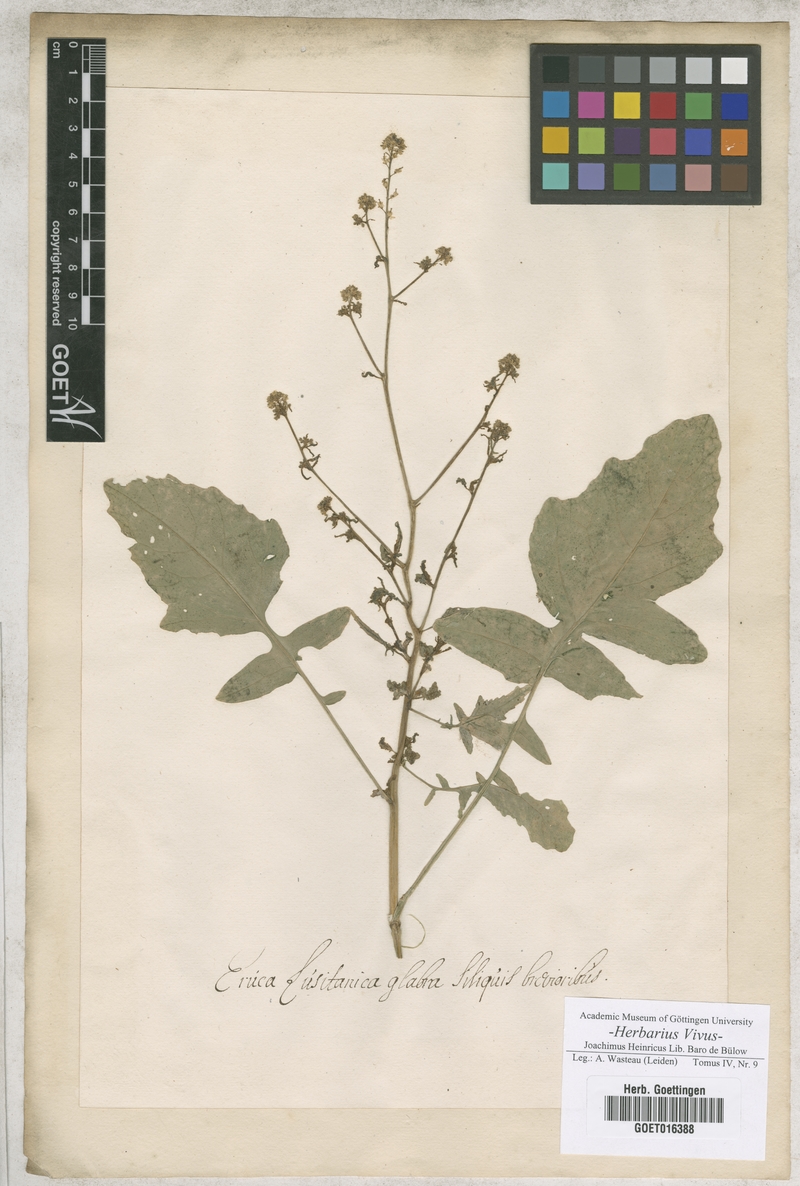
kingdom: Plantae
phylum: Tracheophyta
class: Magnoliopsida
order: Brassicales
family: Brassicaceae
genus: Eruca
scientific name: Eruca
